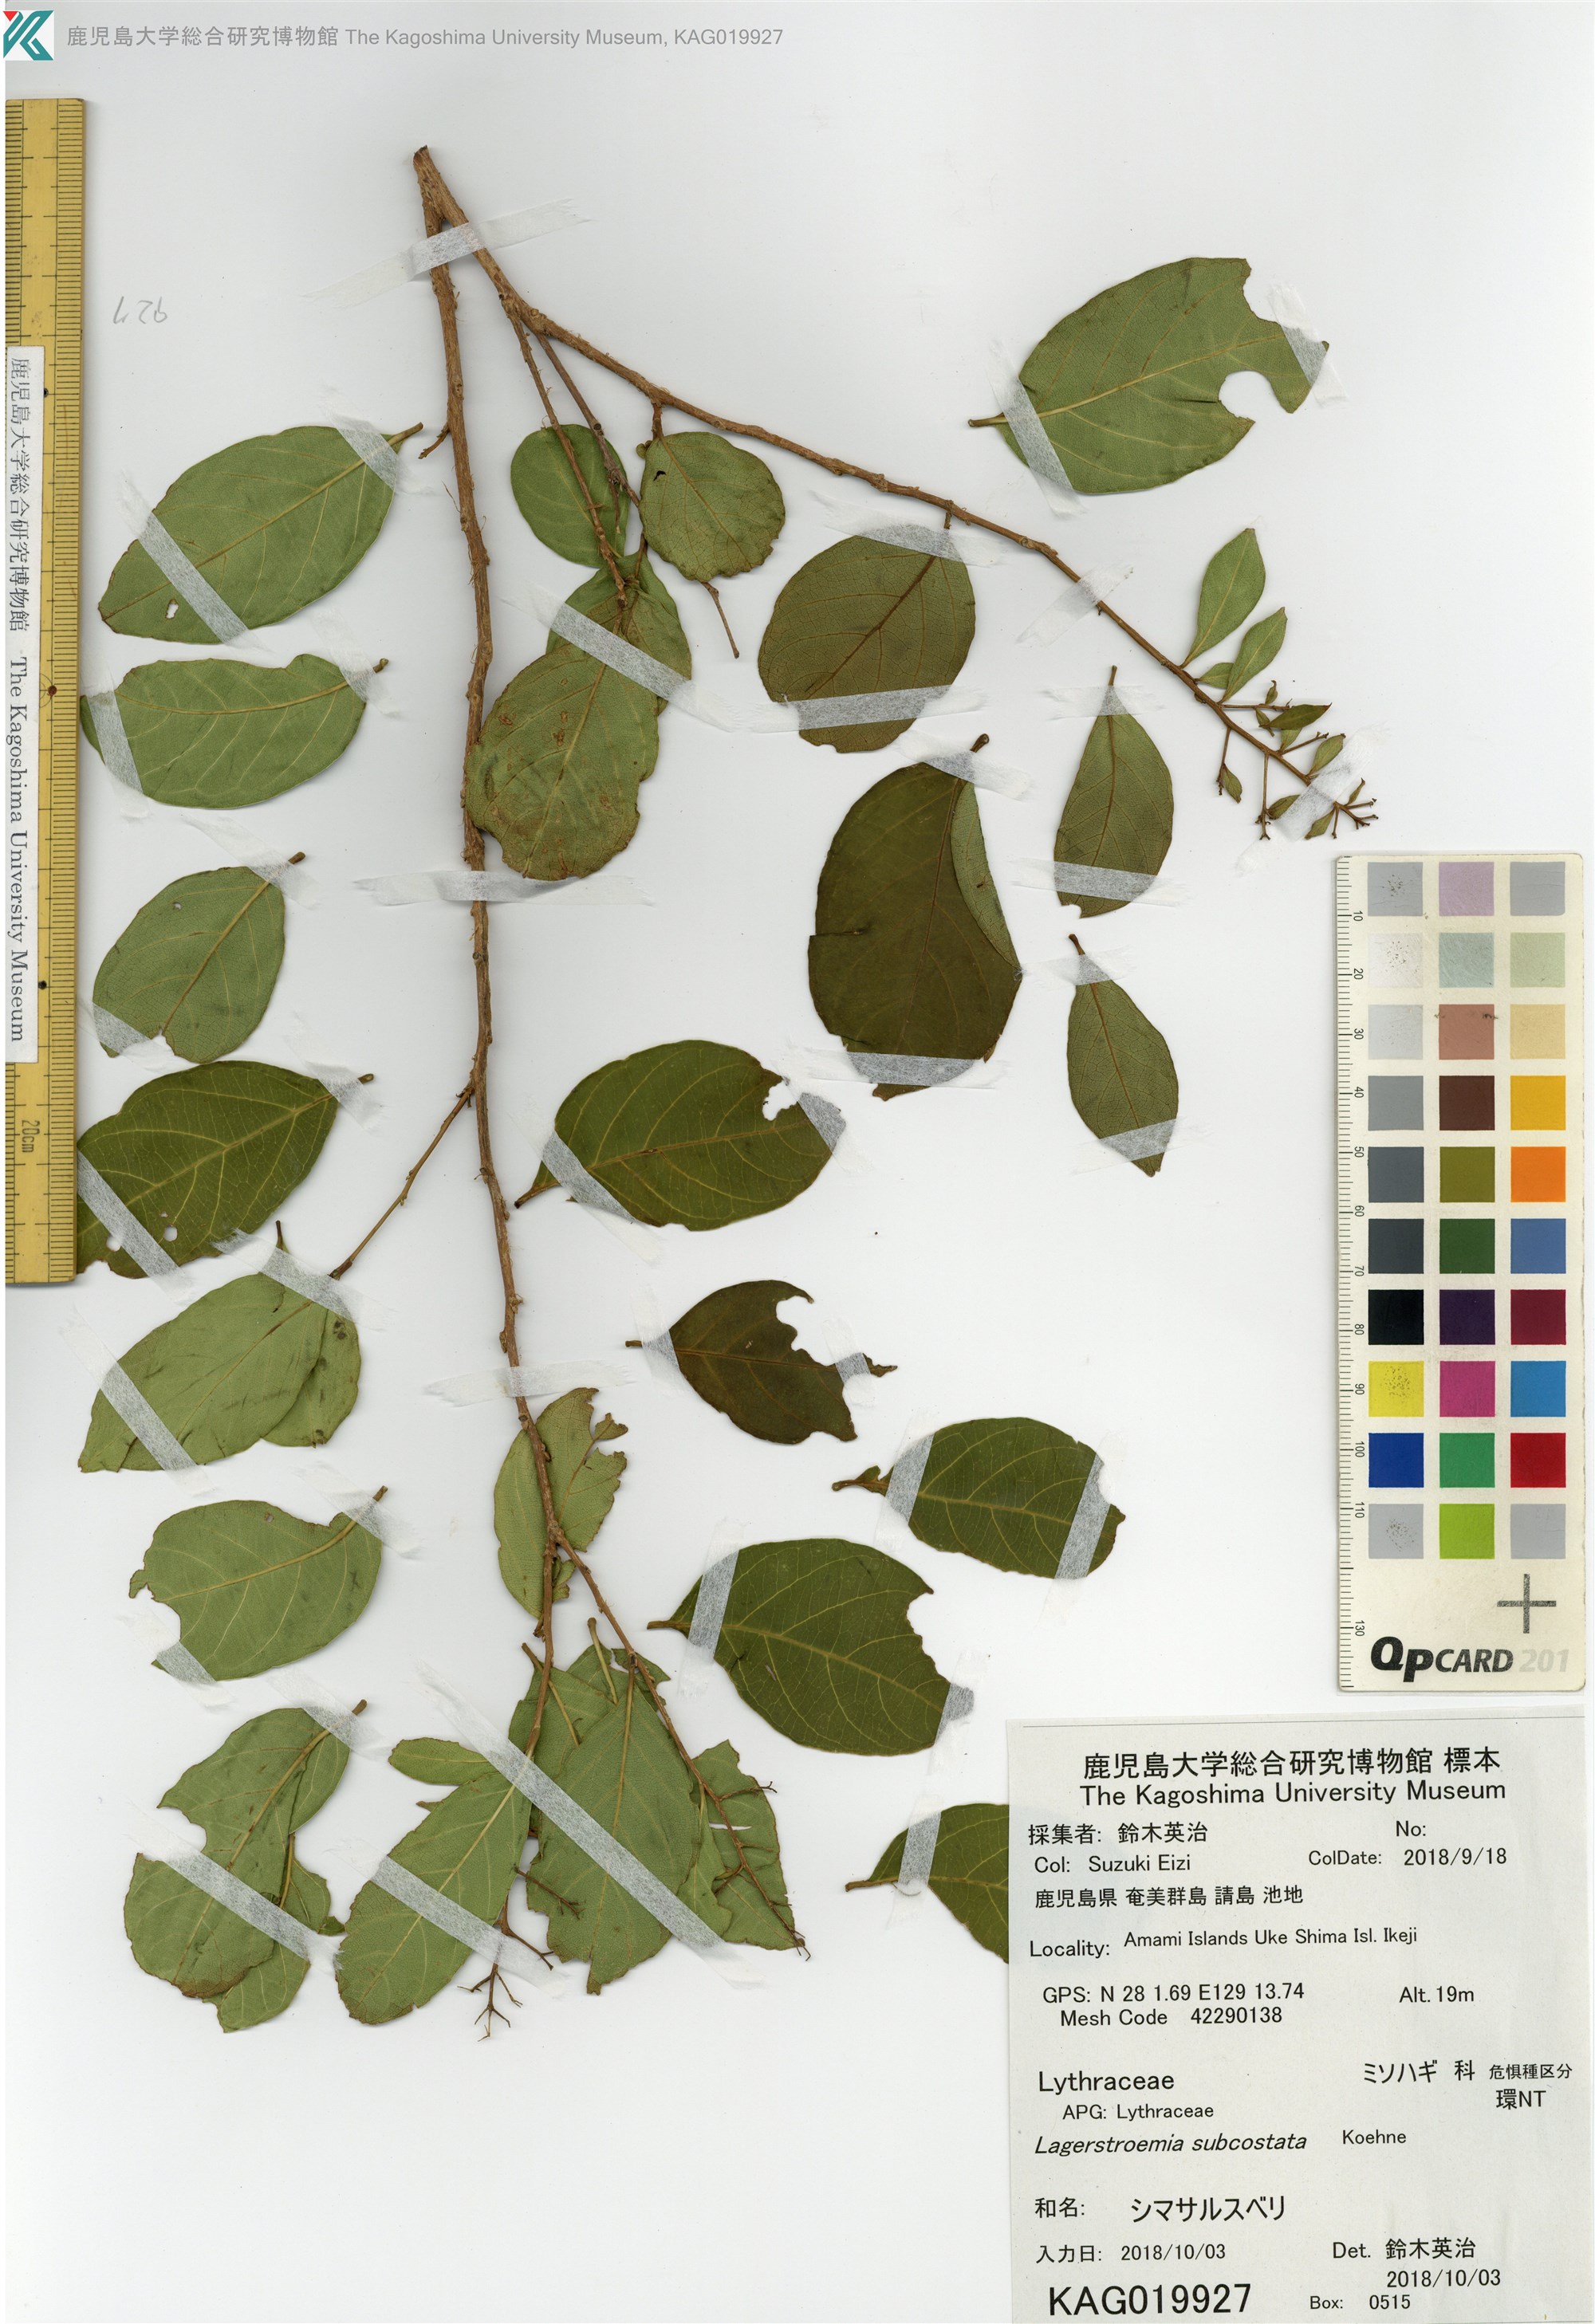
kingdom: Plantae
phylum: Tracheophyta
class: Magnoliopsida
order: Myrtales
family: Lythraceae
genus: Lagerstroemia
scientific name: Lagerstroemia subcostata
